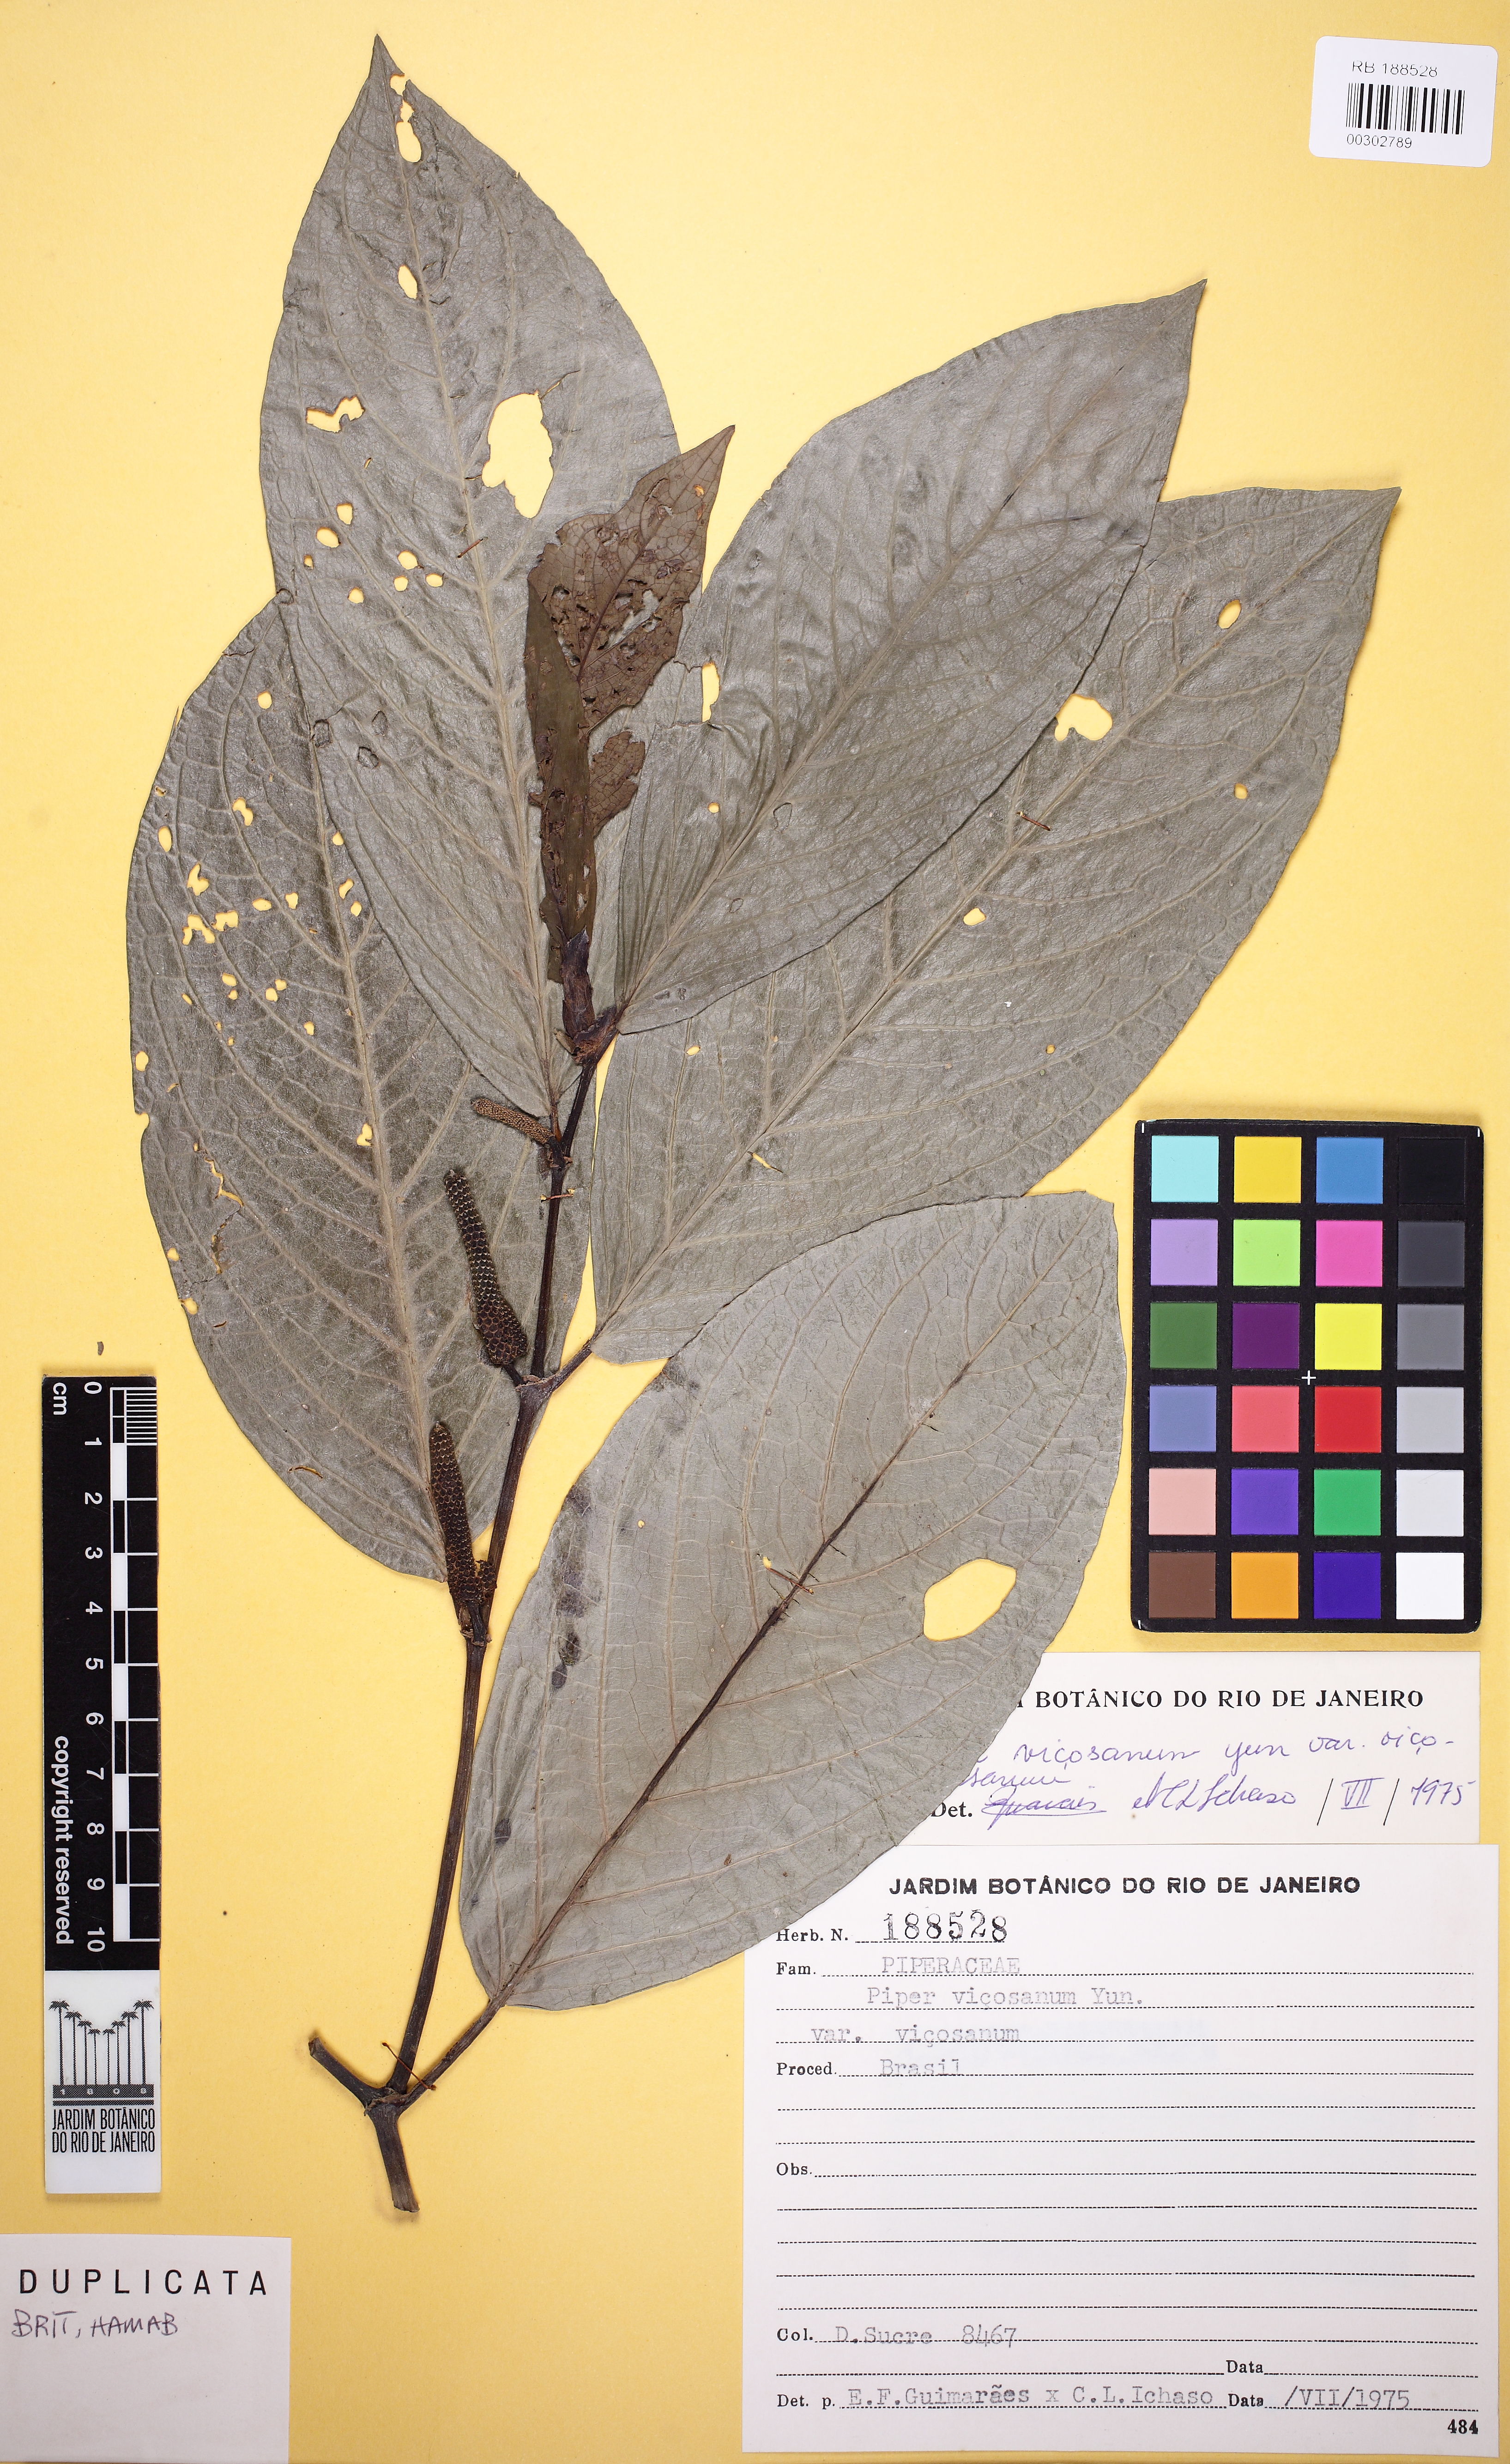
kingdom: Plantae
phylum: Tracheophyta
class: Magnoliopsida
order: Piperales
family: Piperaceae
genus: Piper
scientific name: Piper vicosanum
